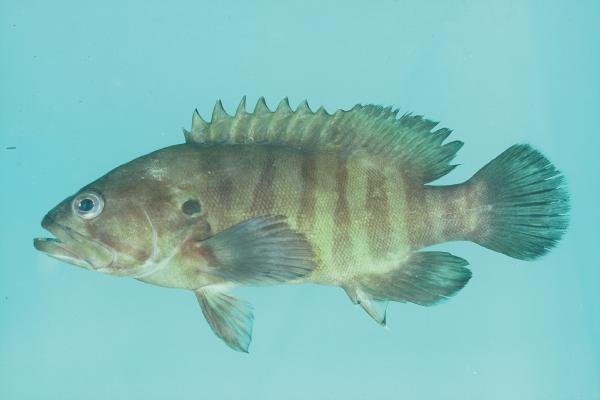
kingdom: Animalia
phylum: Chordata
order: Perciformes
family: Serranidae
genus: Cephalopholis
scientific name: Cephalopholis boenak
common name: Chocolate hind
